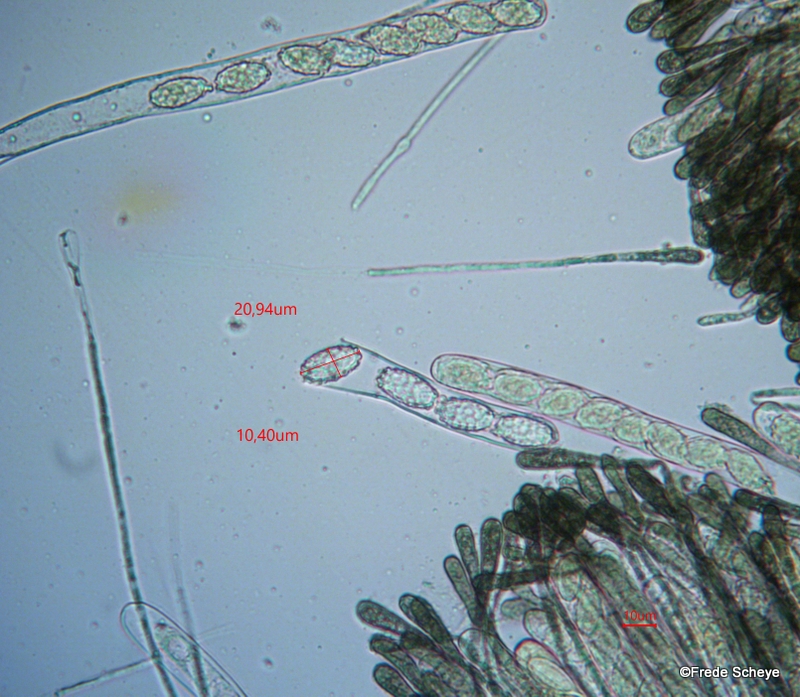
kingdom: Fungi
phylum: Ascomycota
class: Pezizomycetes
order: Pezizales
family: Pyronemataceae
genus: Melastiza
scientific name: Melastiza cornubiensis
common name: mørkrandet rødbæger
